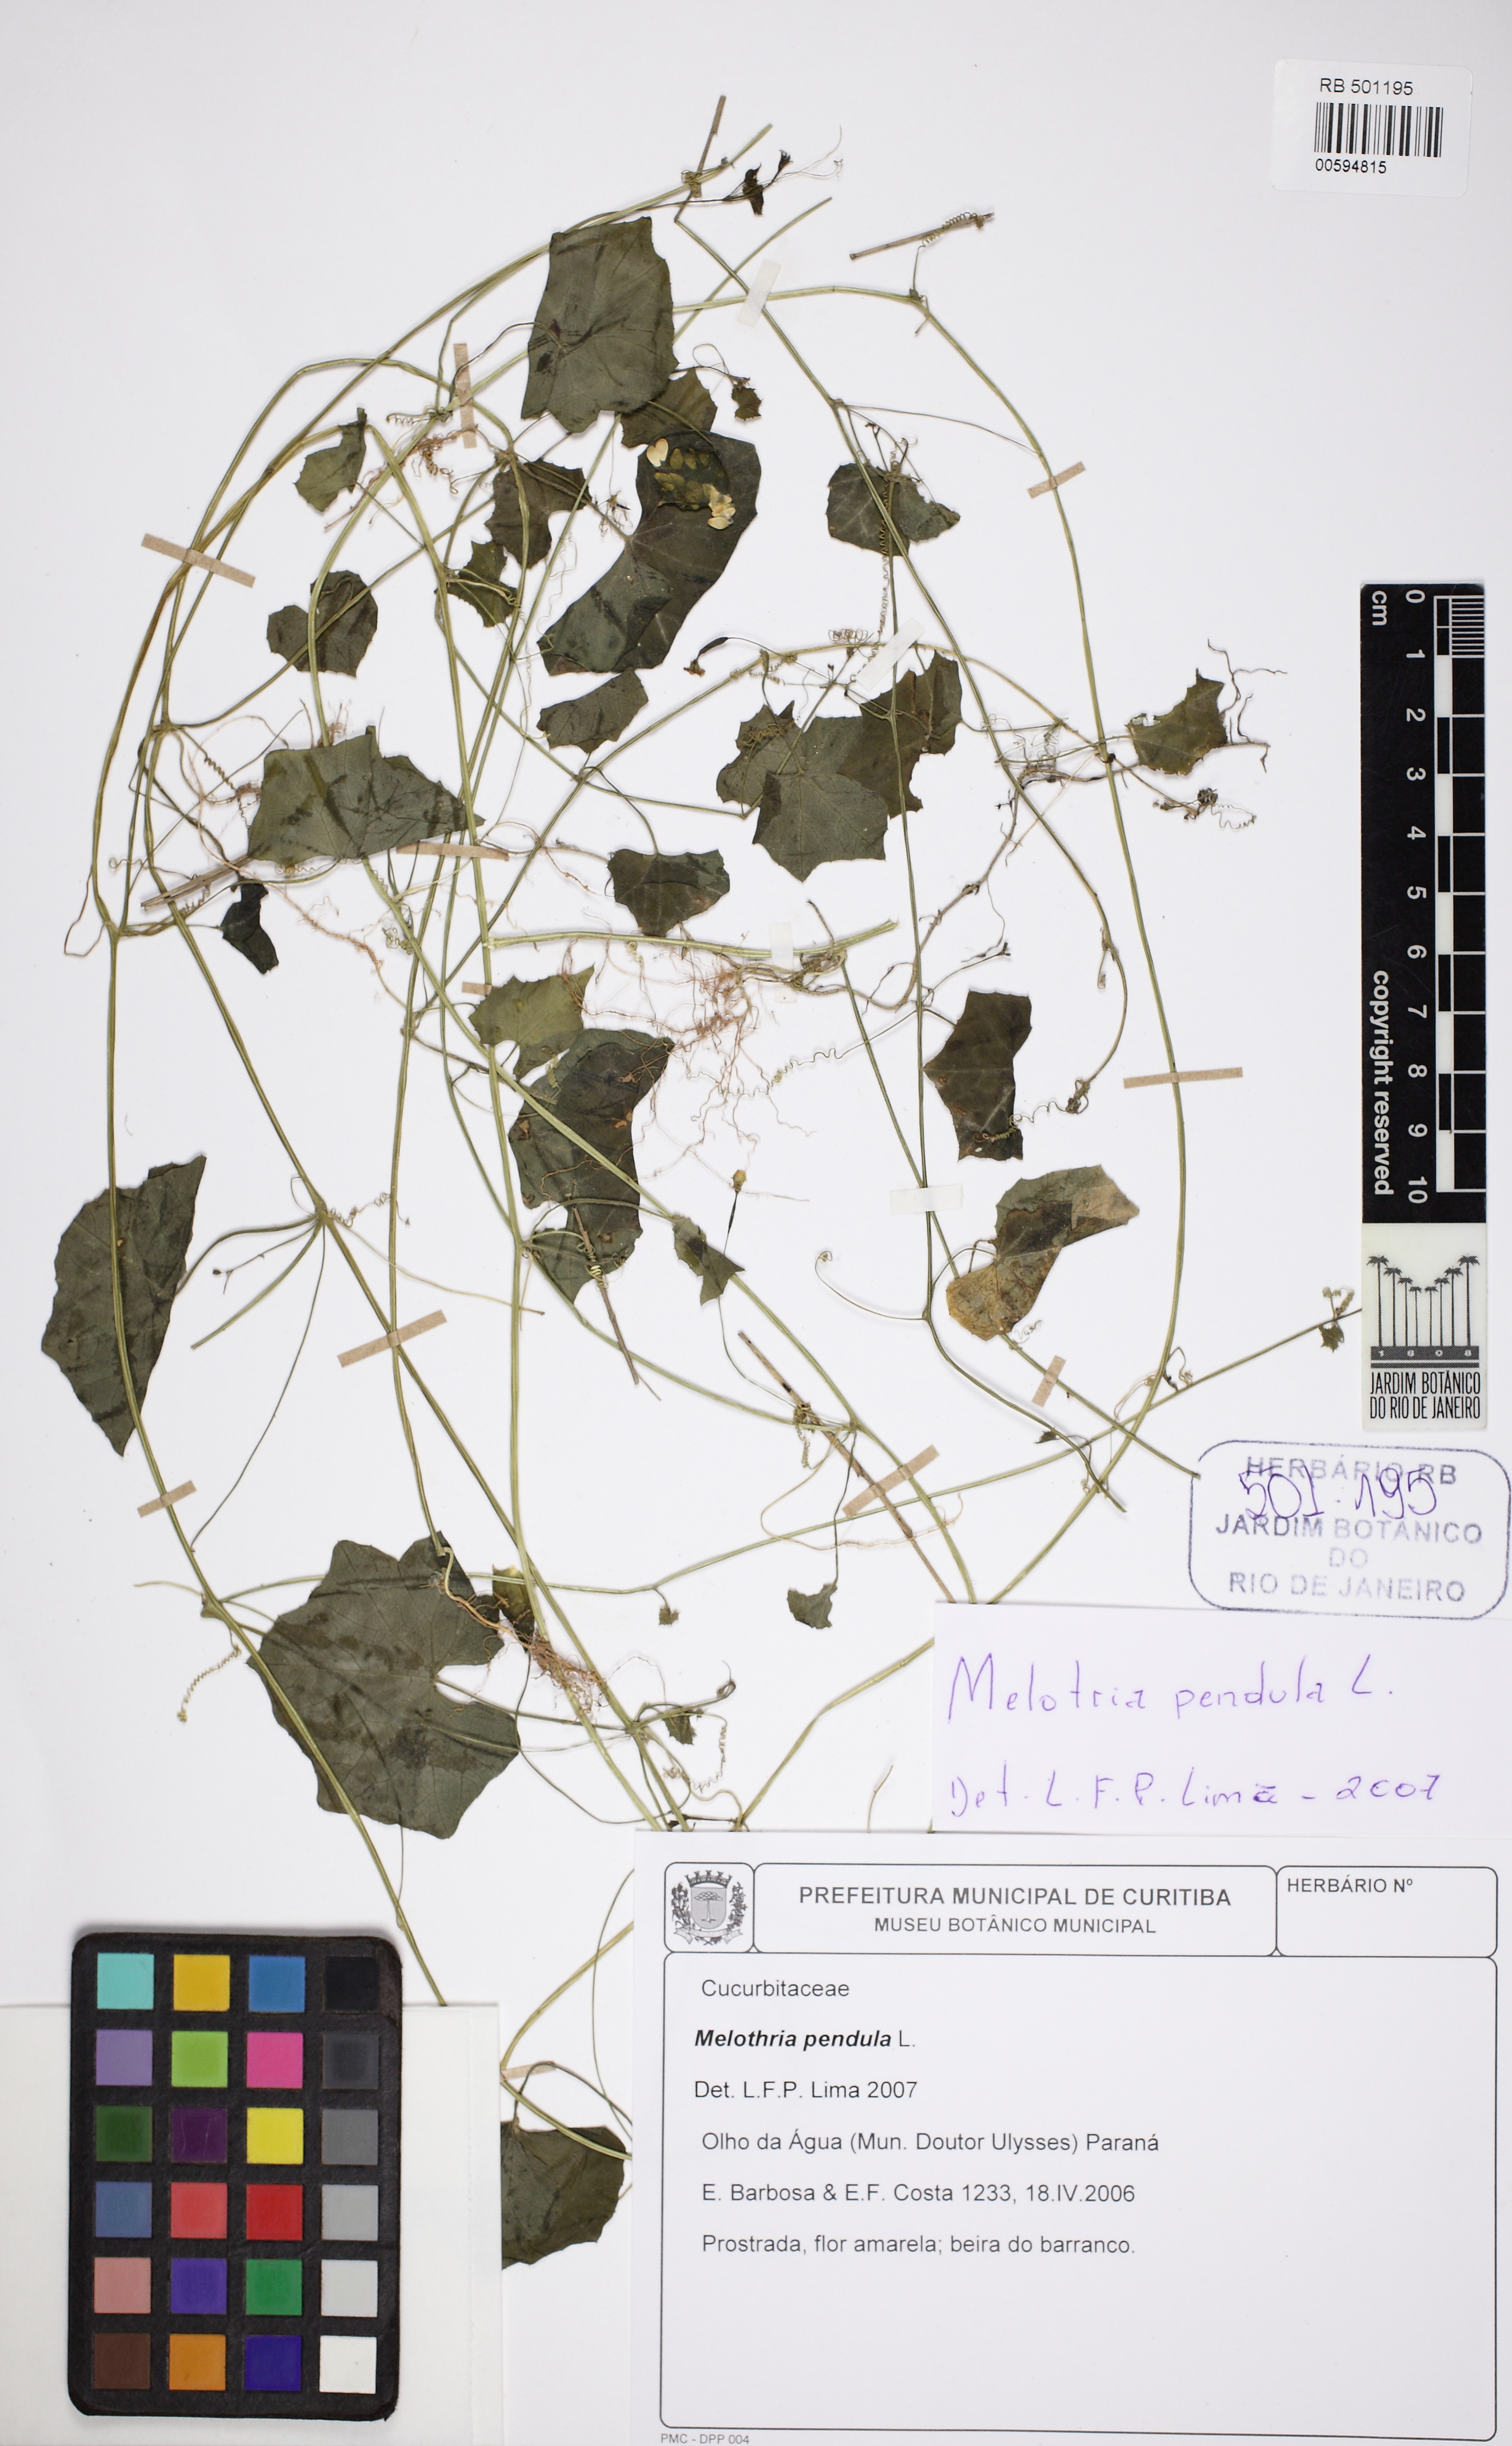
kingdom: Plantae
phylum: Tracheophyta
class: Magnoliopsida
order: Cucurbitales
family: Cucurbitaceae
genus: Melothria
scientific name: Melothria pendula
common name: Creeping-cucumber
